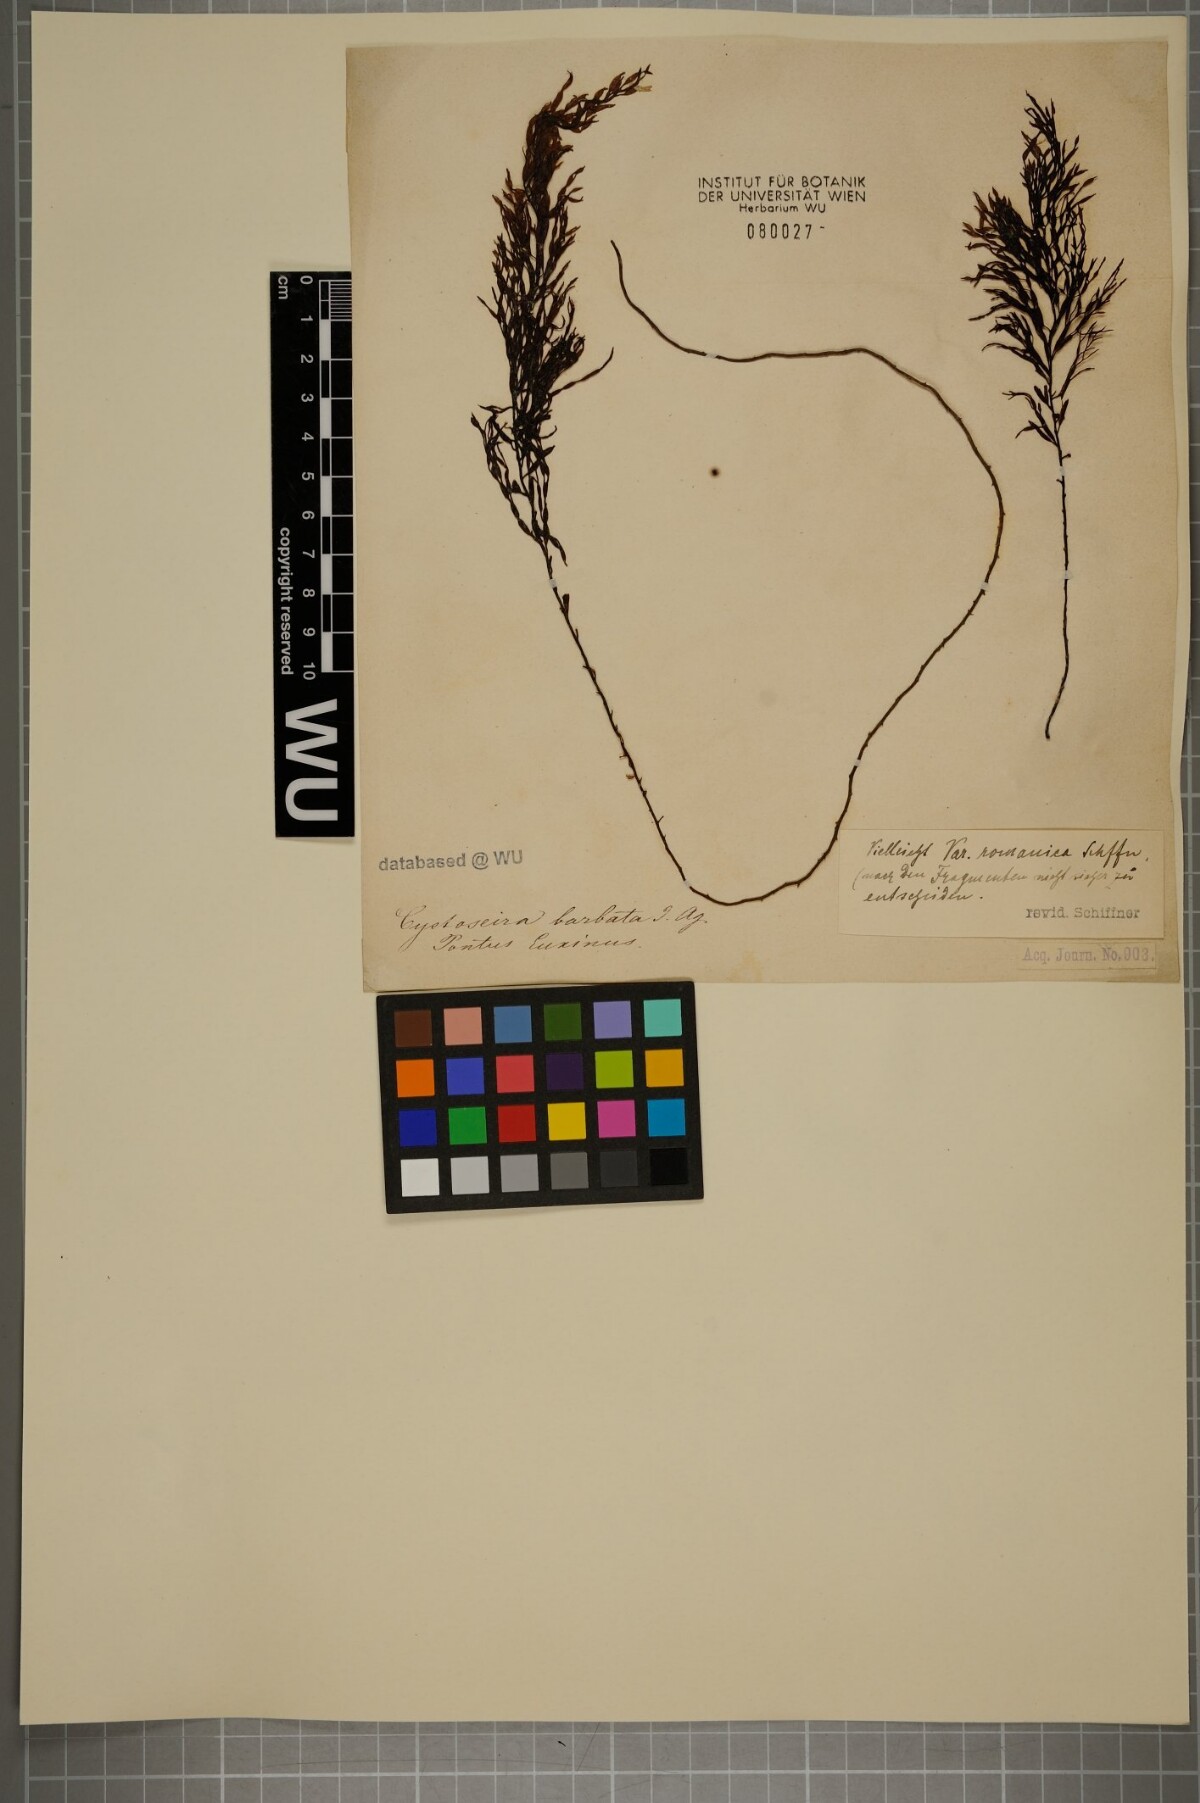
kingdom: Chromista
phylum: Ochrophyta
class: Phaeophyceae
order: Fucales
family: Sargassaceae
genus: Cystoseira
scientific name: Cystoseira Gongolaria barbata
